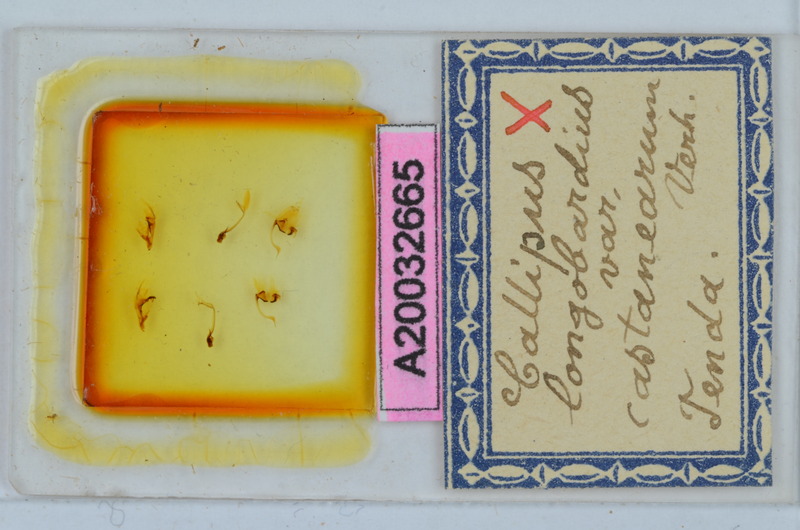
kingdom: Animalia
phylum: Arthropoda
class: Diplopoda
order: Callipodida
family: Callipodidae
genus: Callipus
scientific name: Callipus foetidissimus
